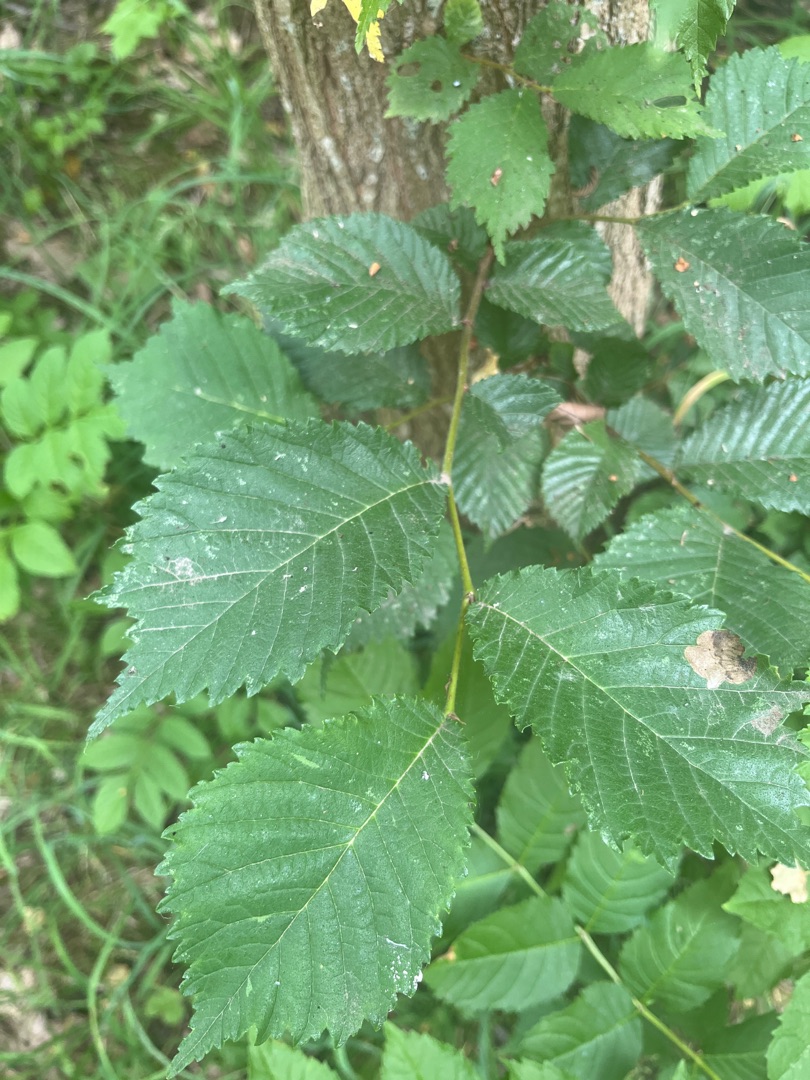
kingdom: Plantae
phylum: Tracheophyta
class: Magnoliopsida
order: Rosales
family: Ulmaceae
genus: Ulmus
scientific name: Ulmus glabra
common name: Skov-elm/storbladet elm
